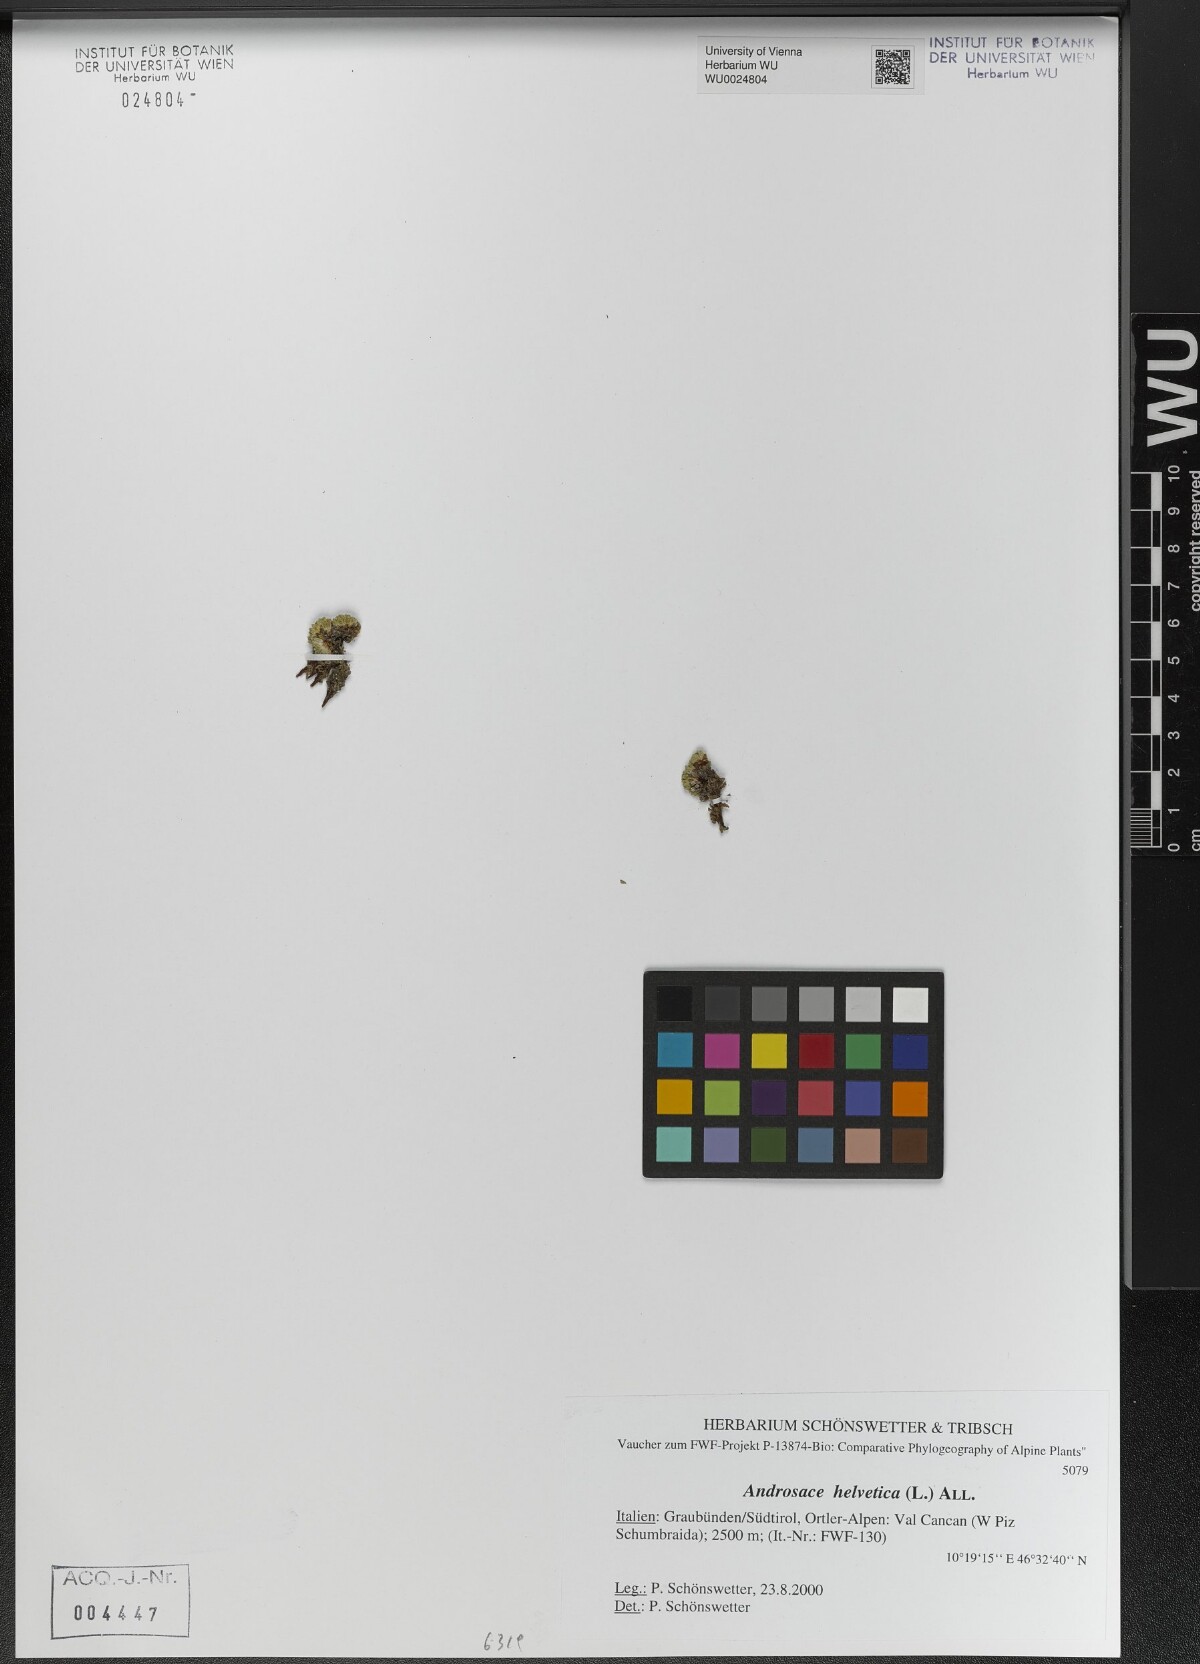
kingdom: Plantae
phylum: Tracheophyta
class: Magnoliopsida
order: Ericales
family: Primulaceae
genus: Androsace
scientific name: Androsace helvetica
